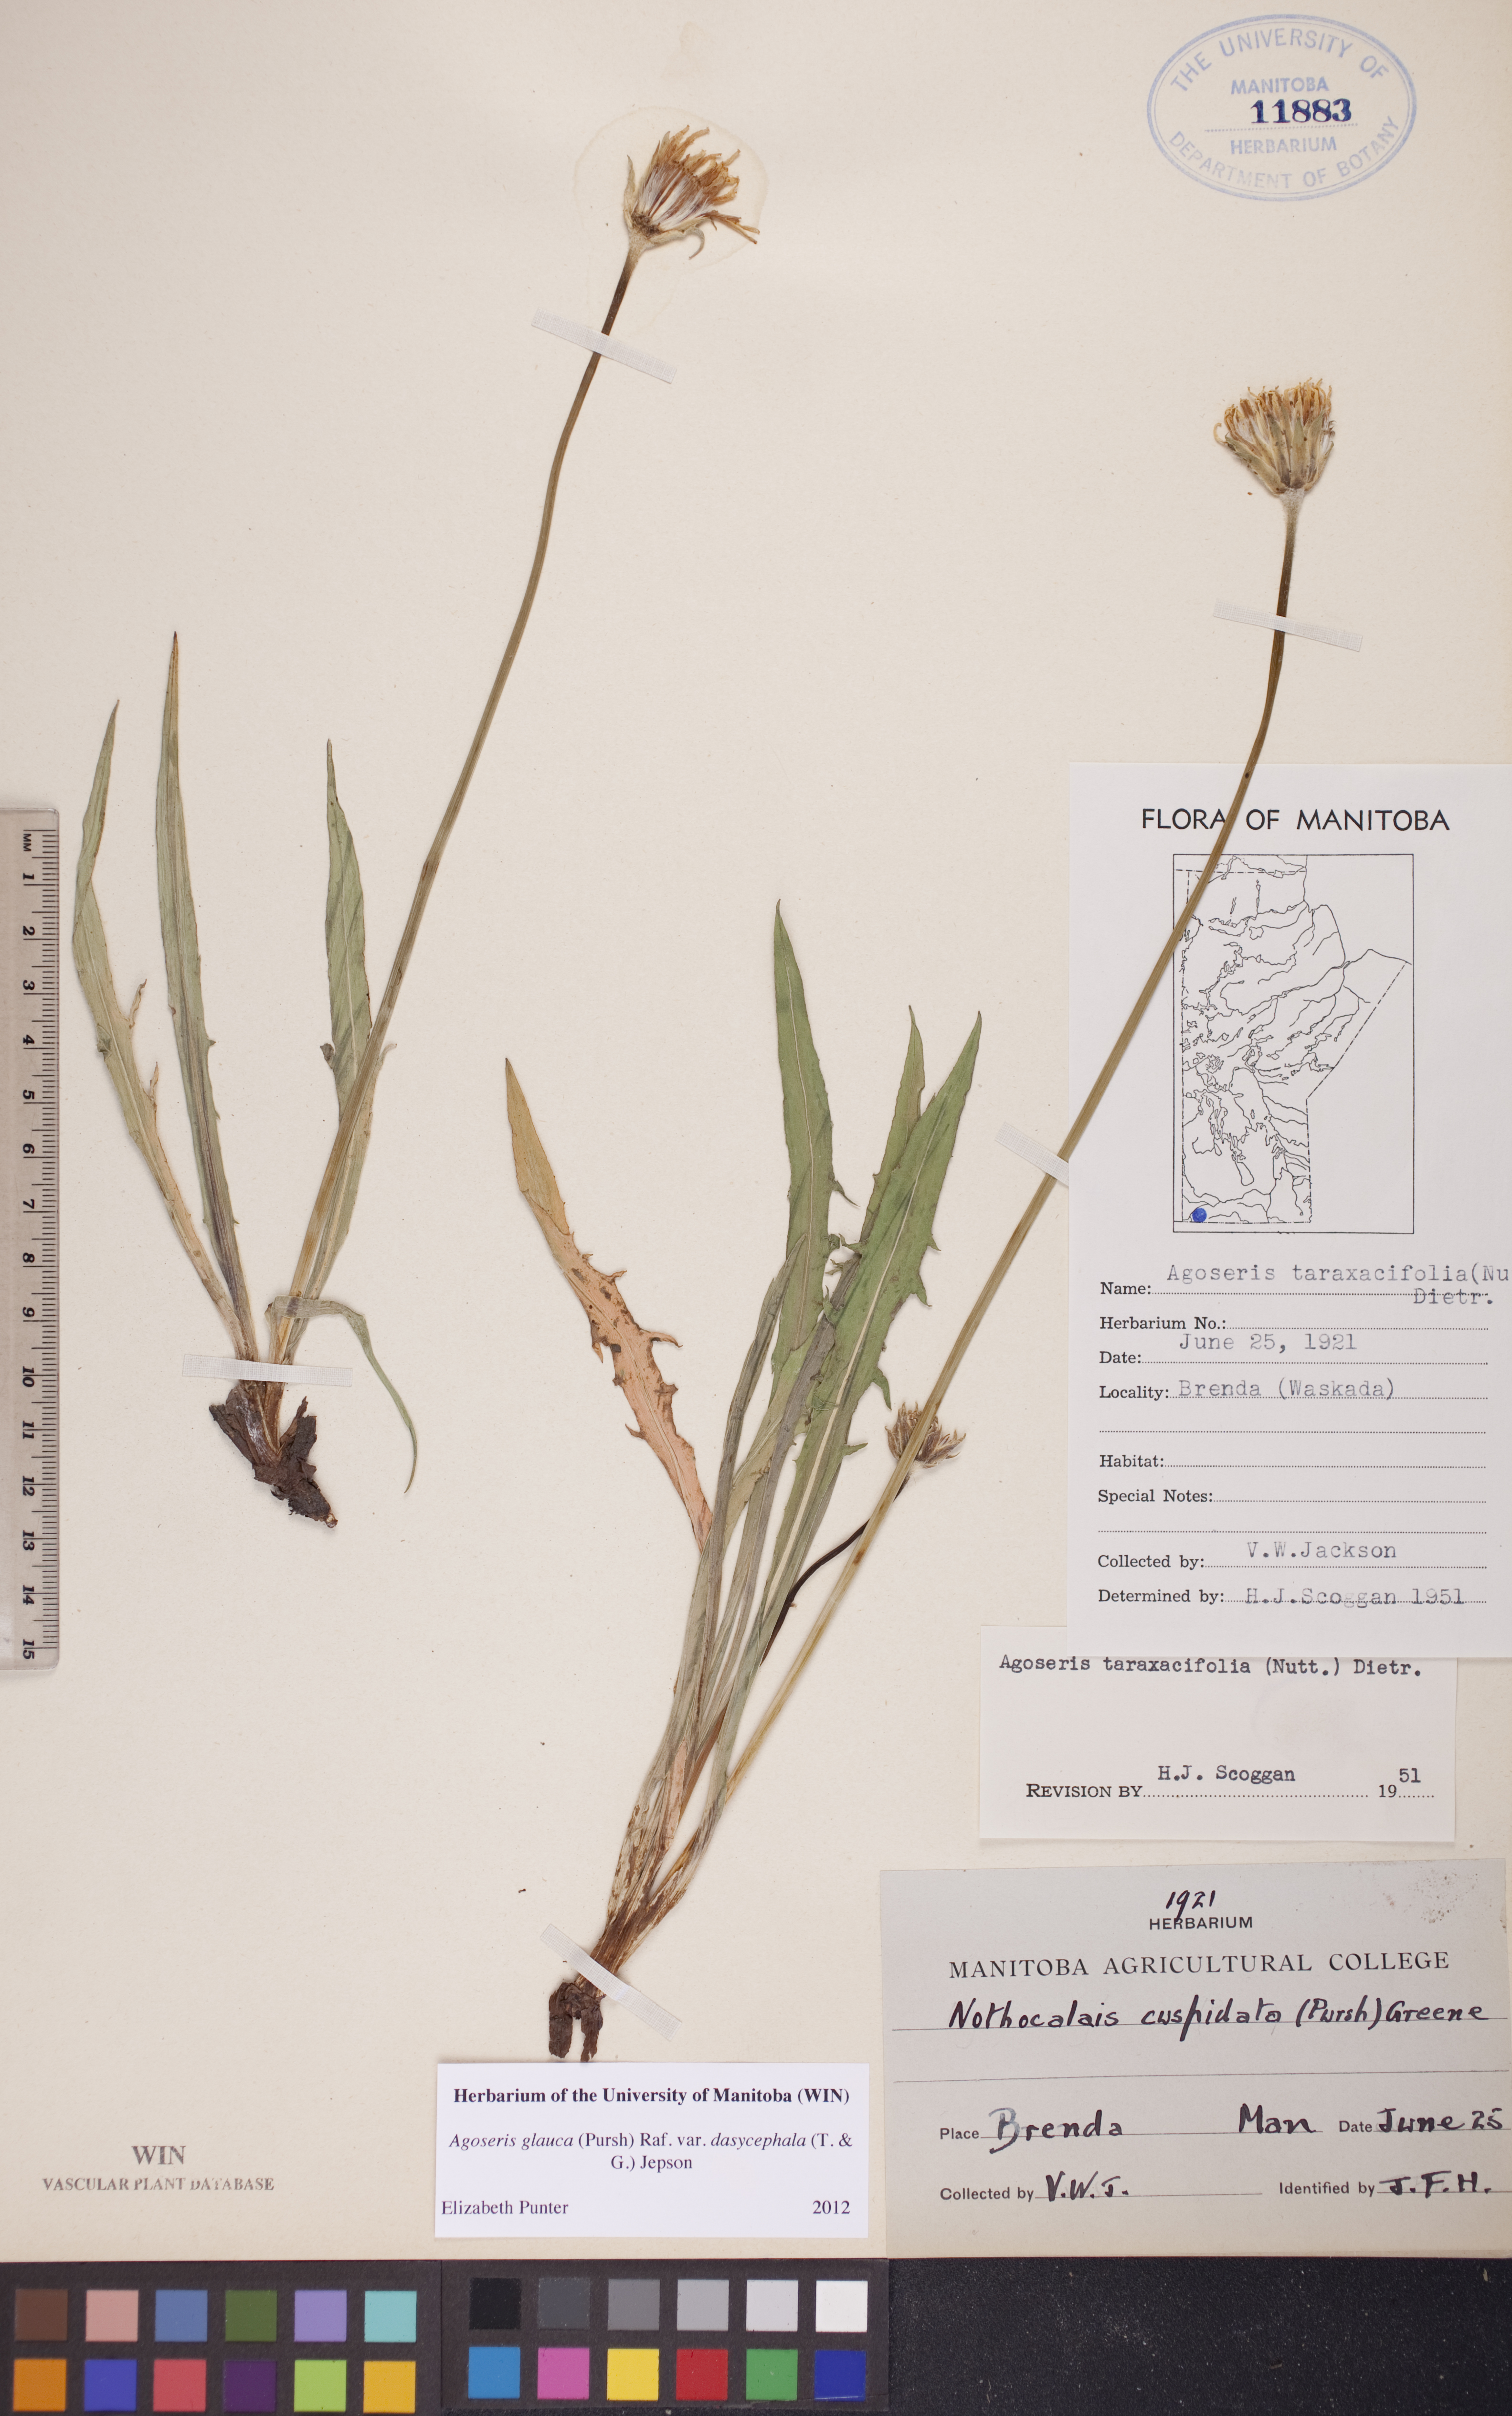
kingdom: Plantae
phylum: Tracheophyta
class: Magnoliopsida
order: Asterales
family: Asteraceae
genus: Agoseris
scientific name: Agoseris glauca
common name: Prairie agoseris
